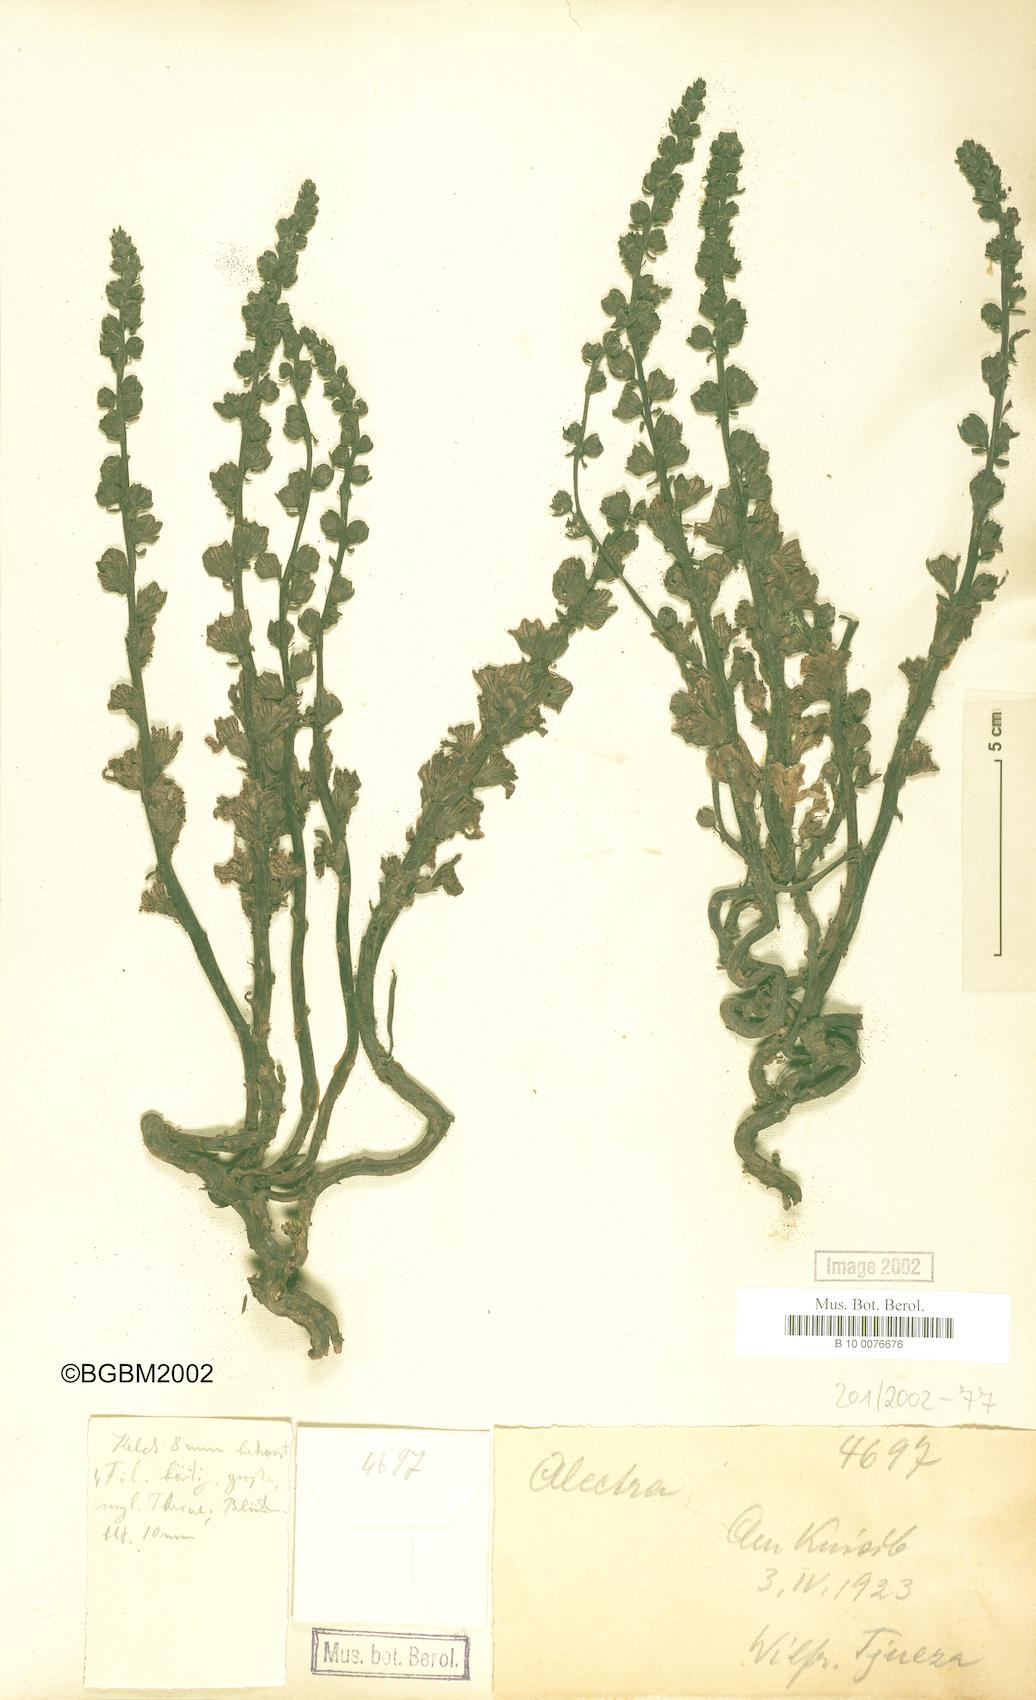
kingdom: Plantae
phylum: Tracheophyta
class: Magnoliopsida
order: Lamiales
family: Orobanchaceae
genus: Alectra
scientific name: Alectra
